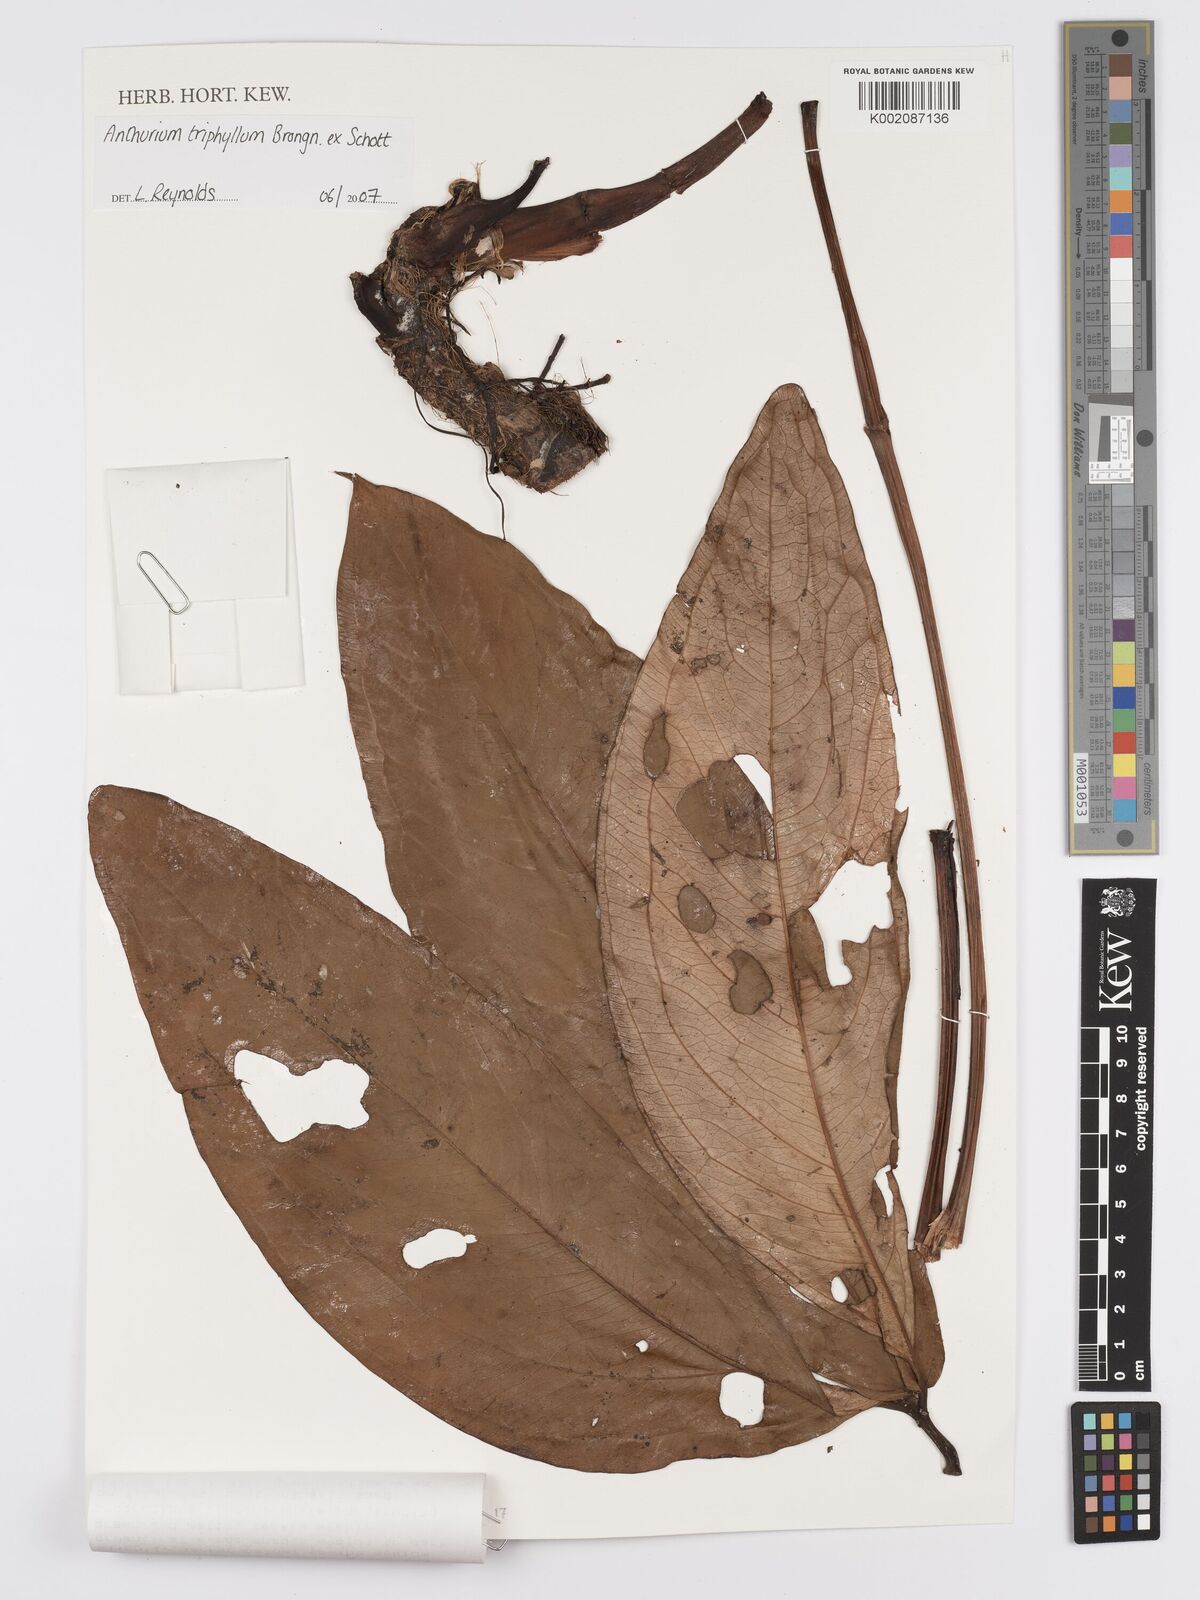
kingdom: Plantae
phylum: Tracheophyta
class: Liliopsida
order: Alismatales
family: Araceae
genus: Anthurium
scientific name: Anthurium triphyllum
